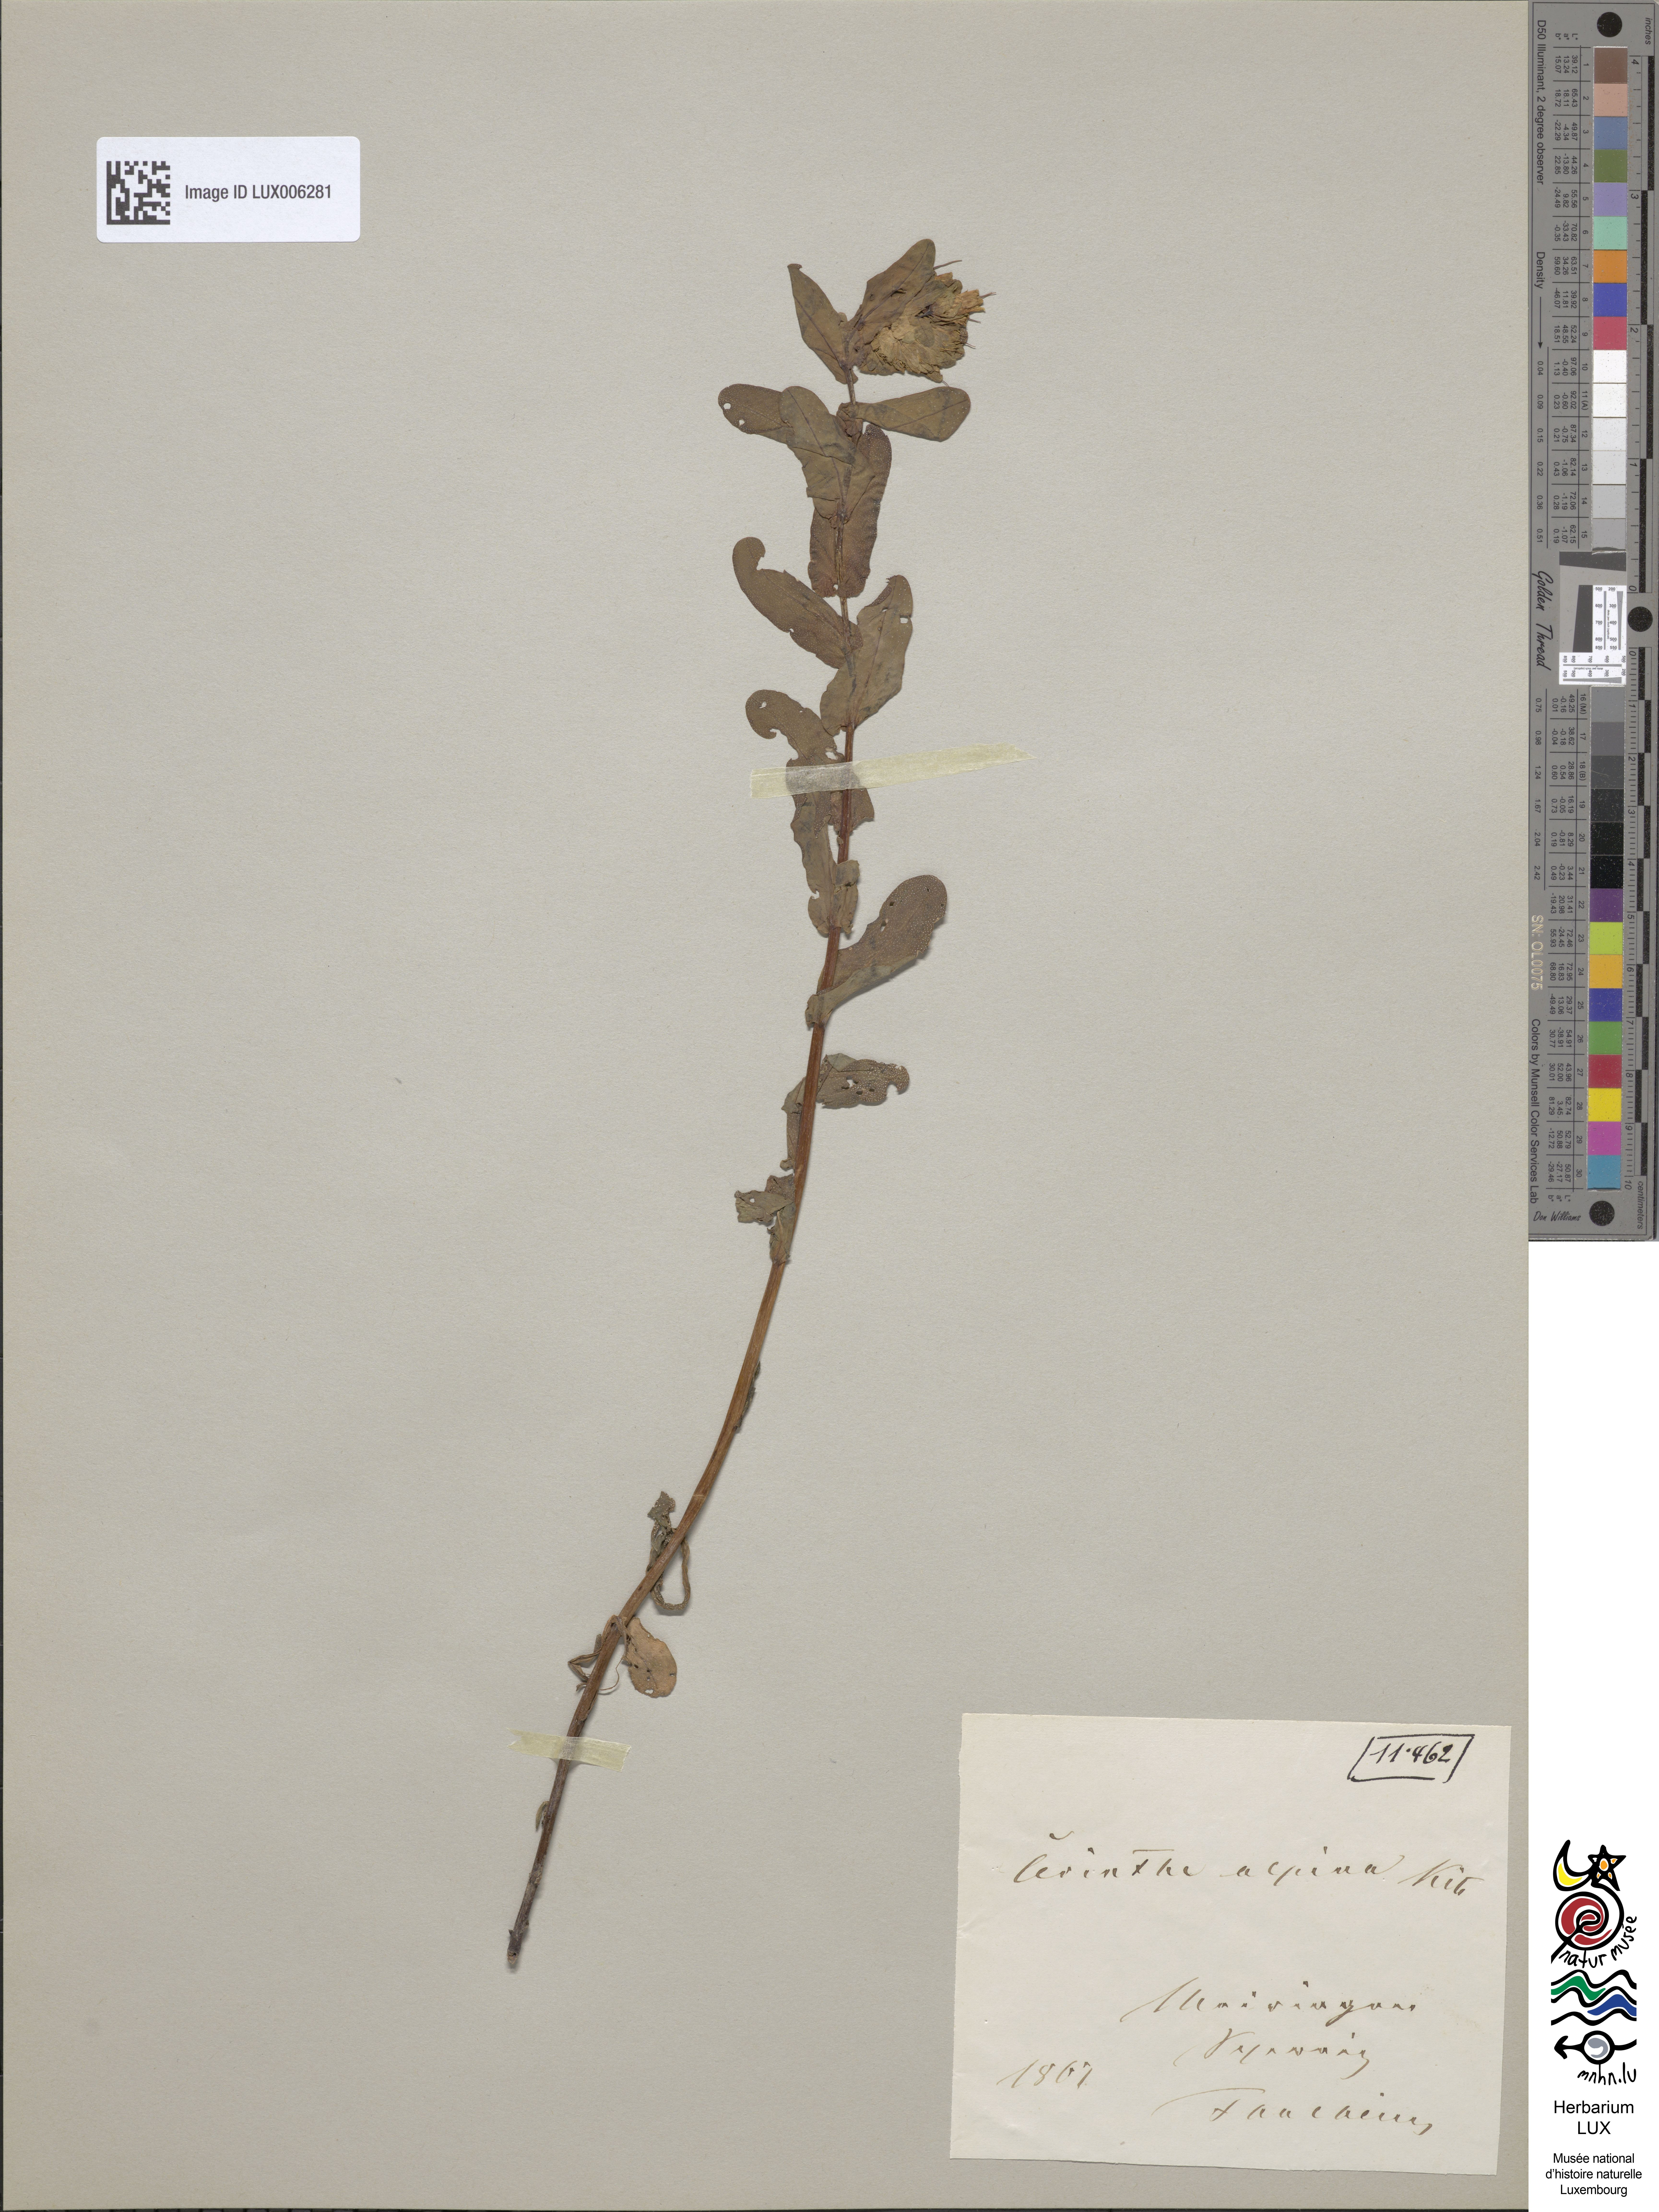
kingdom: Plantae
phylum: Tracheophyta
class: Magnoliopsida
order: Boraginales
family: Boraginaceae
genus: Cerinthe
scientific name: Cerinthe glabra
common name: Smooth honeywort
